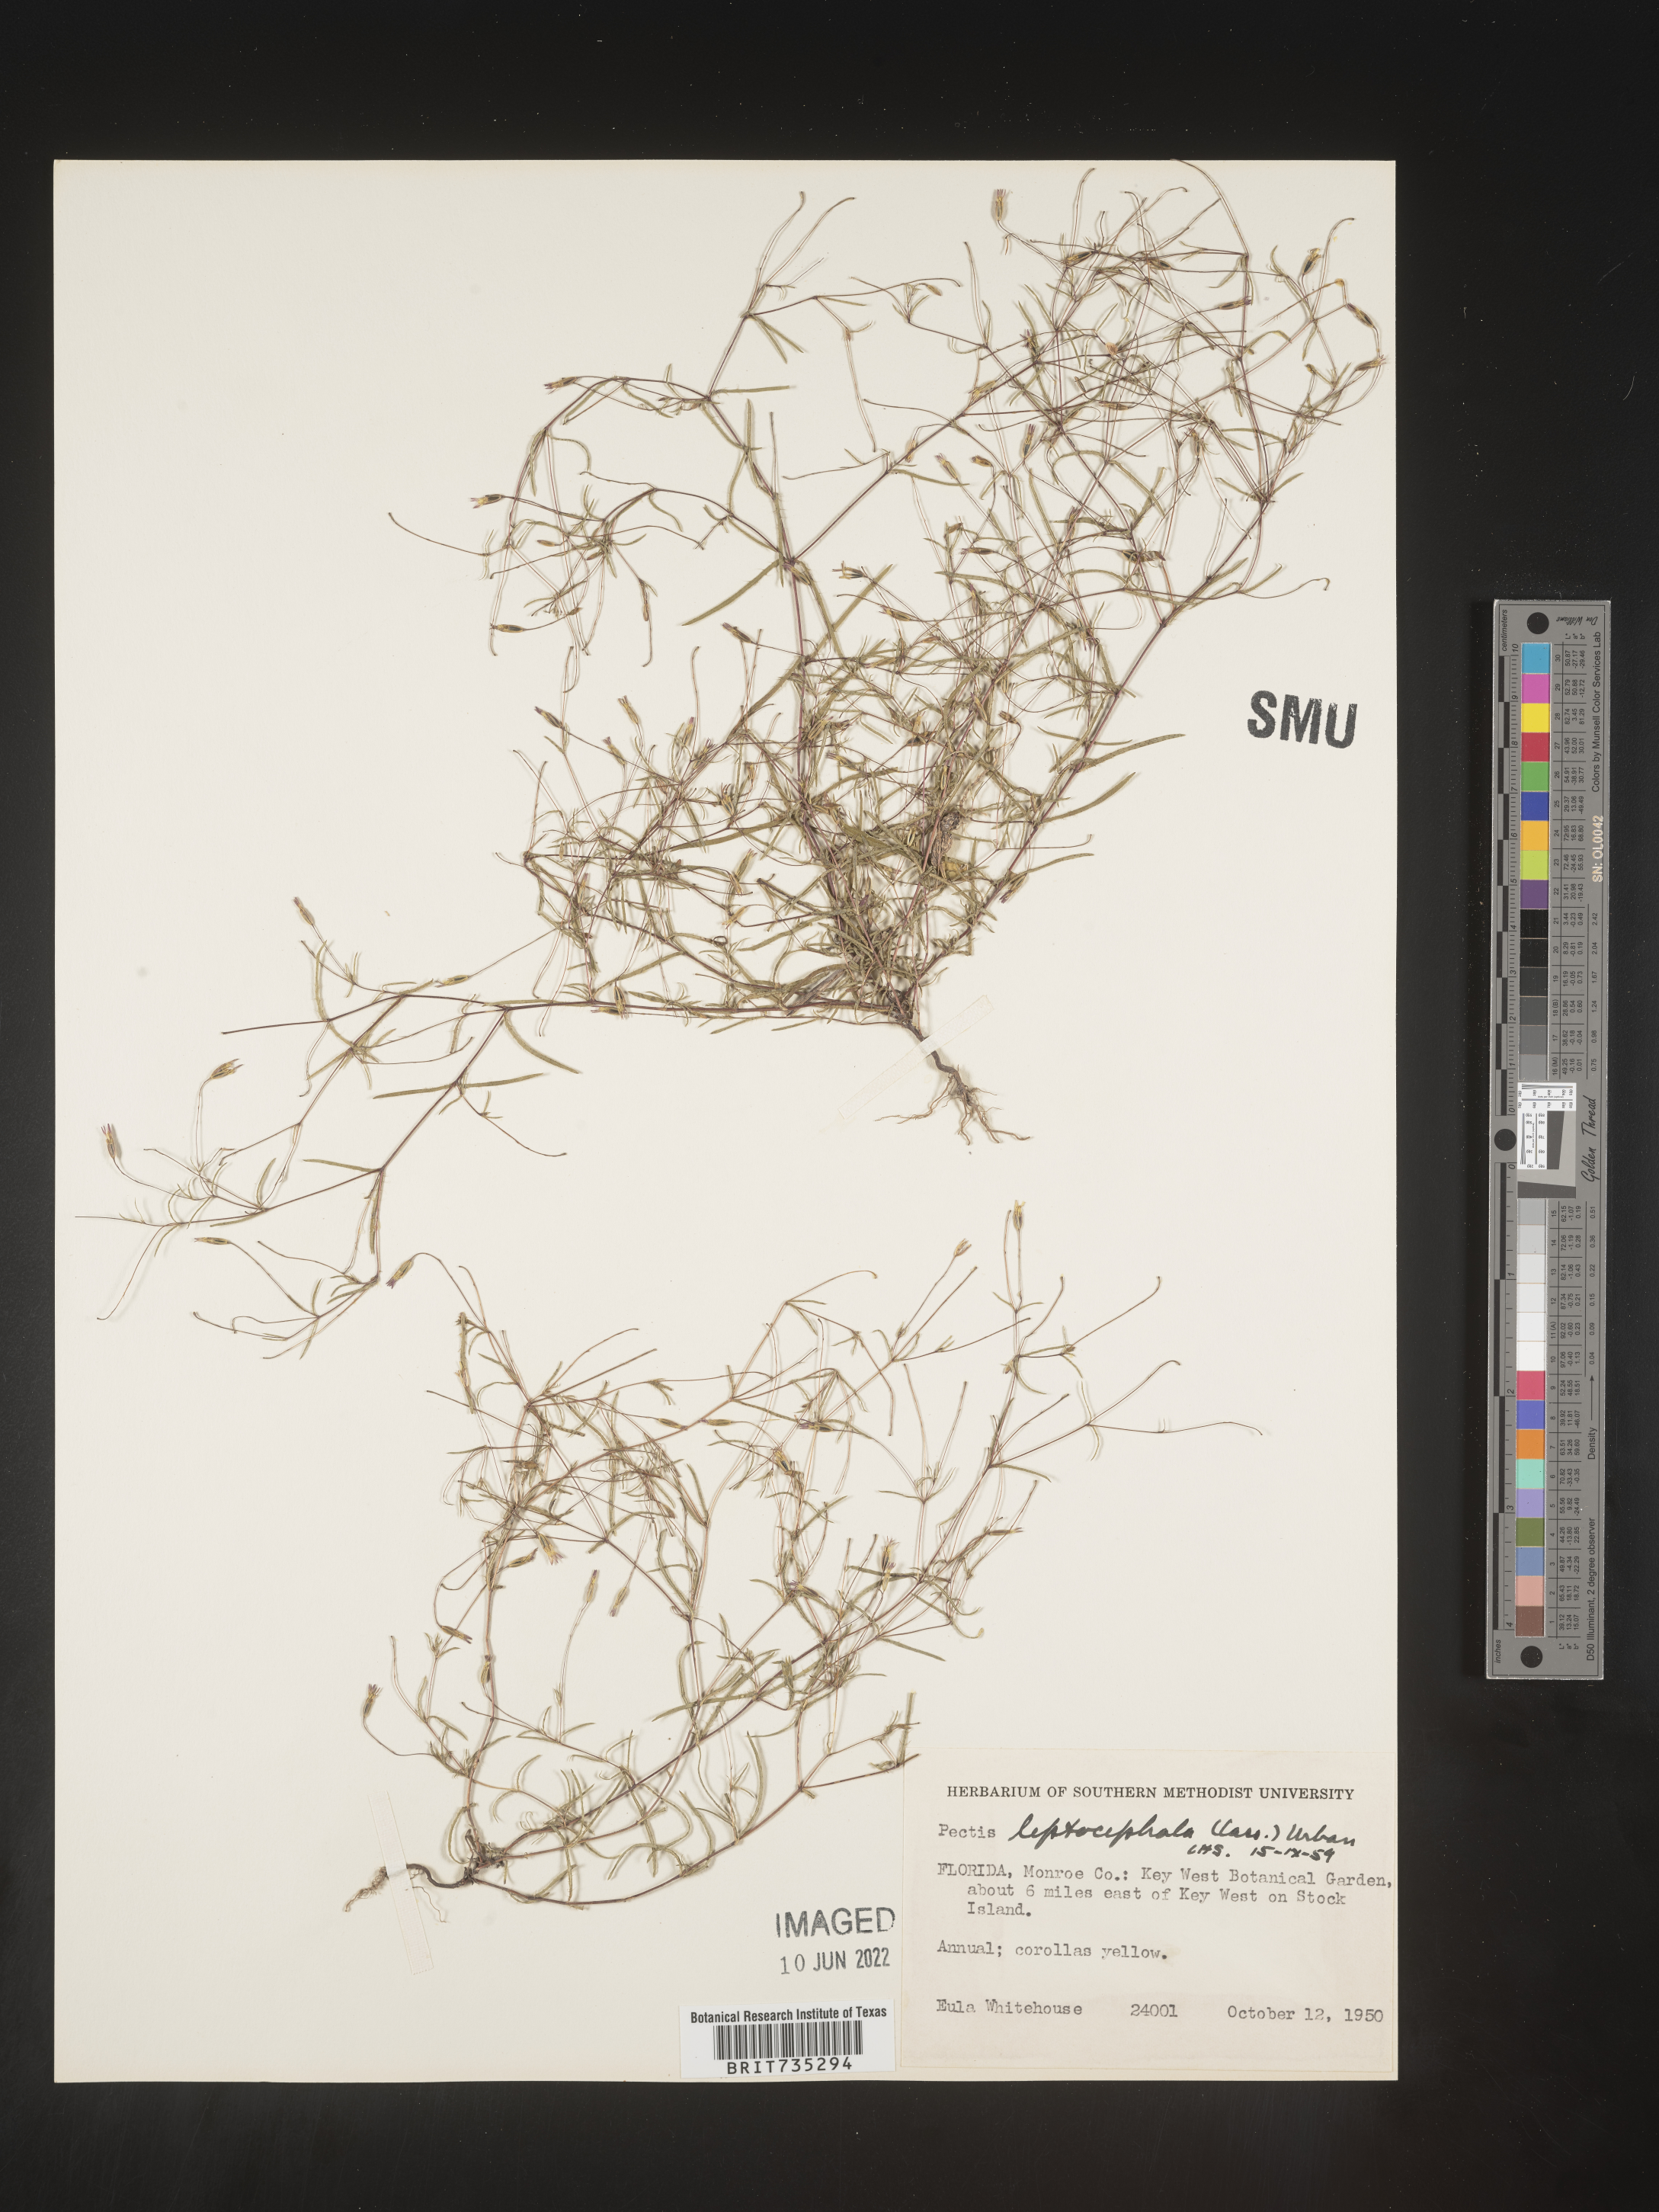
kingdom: Plantae
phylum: Tracheophyta
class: Magnoliopsida
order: Asterales
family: Asteraceae
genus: Pectis
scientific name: Pectis glaucescens
